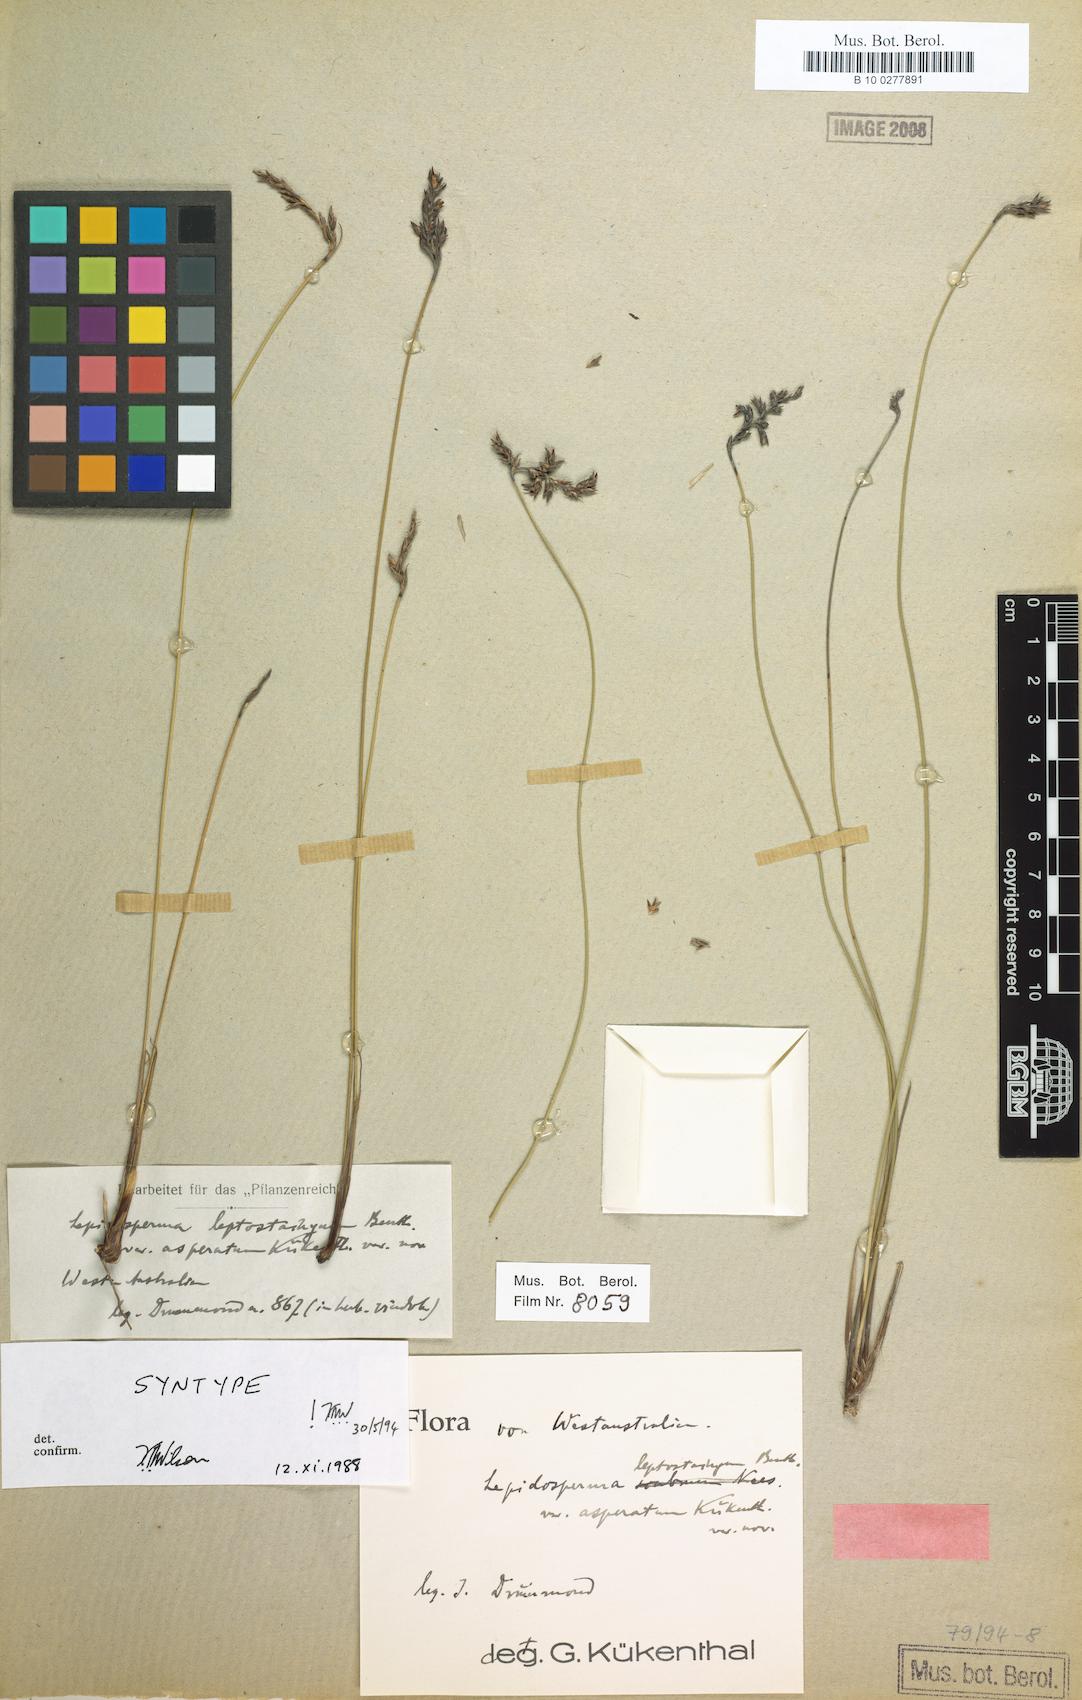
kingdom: Plantae
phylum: Tracheophyta
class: Liliopsida
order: Poales
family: Cyperaceae
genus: Lepidosperma
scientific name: Lepidosperma asperatum
